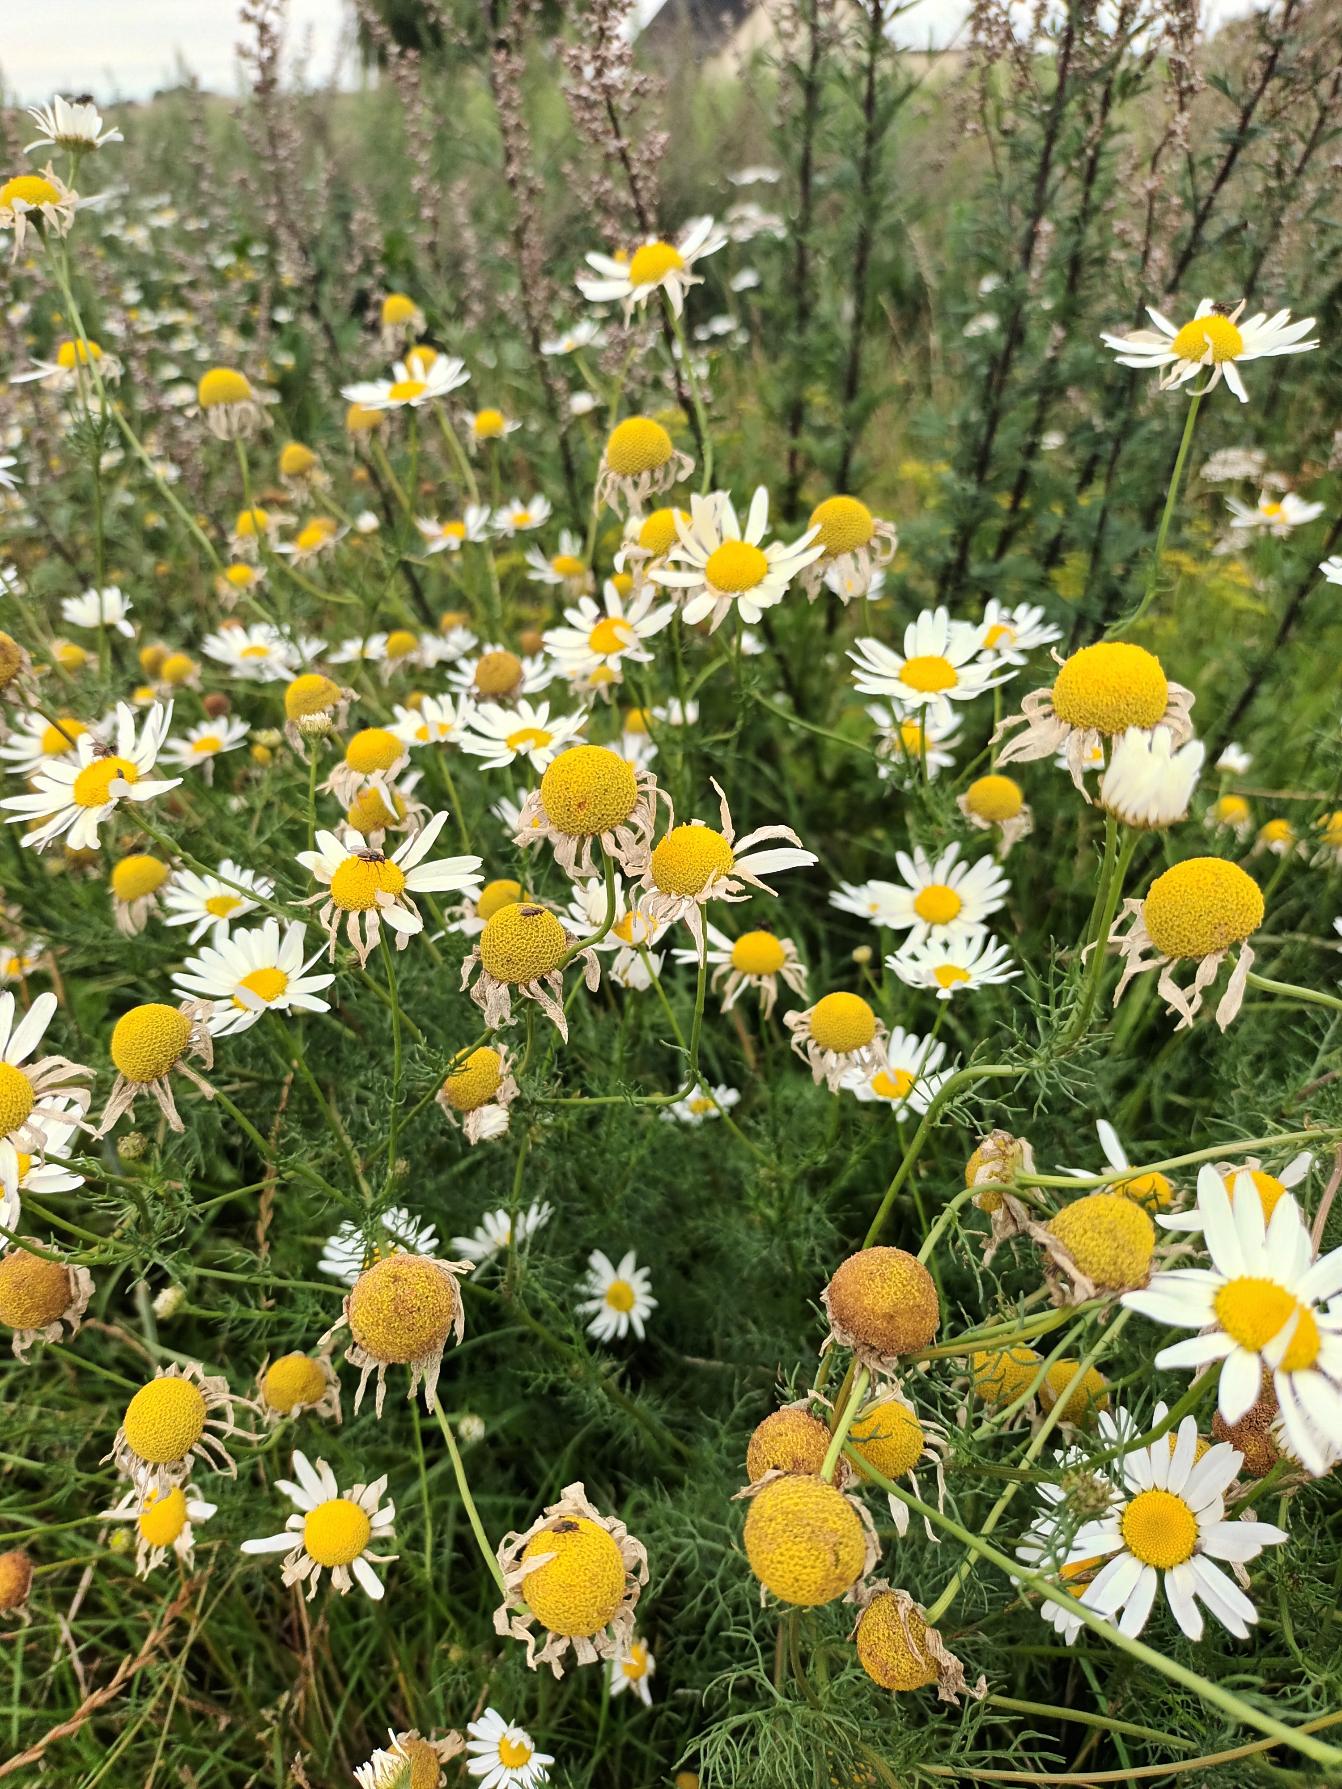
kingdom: Plantae
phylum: Tracheophyta
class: Magnoliopsida
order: Asterales
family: Asteraceae
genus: Tripleurospermum
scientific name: Tripleurospermum inodorum
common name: Lugtløs kamille
